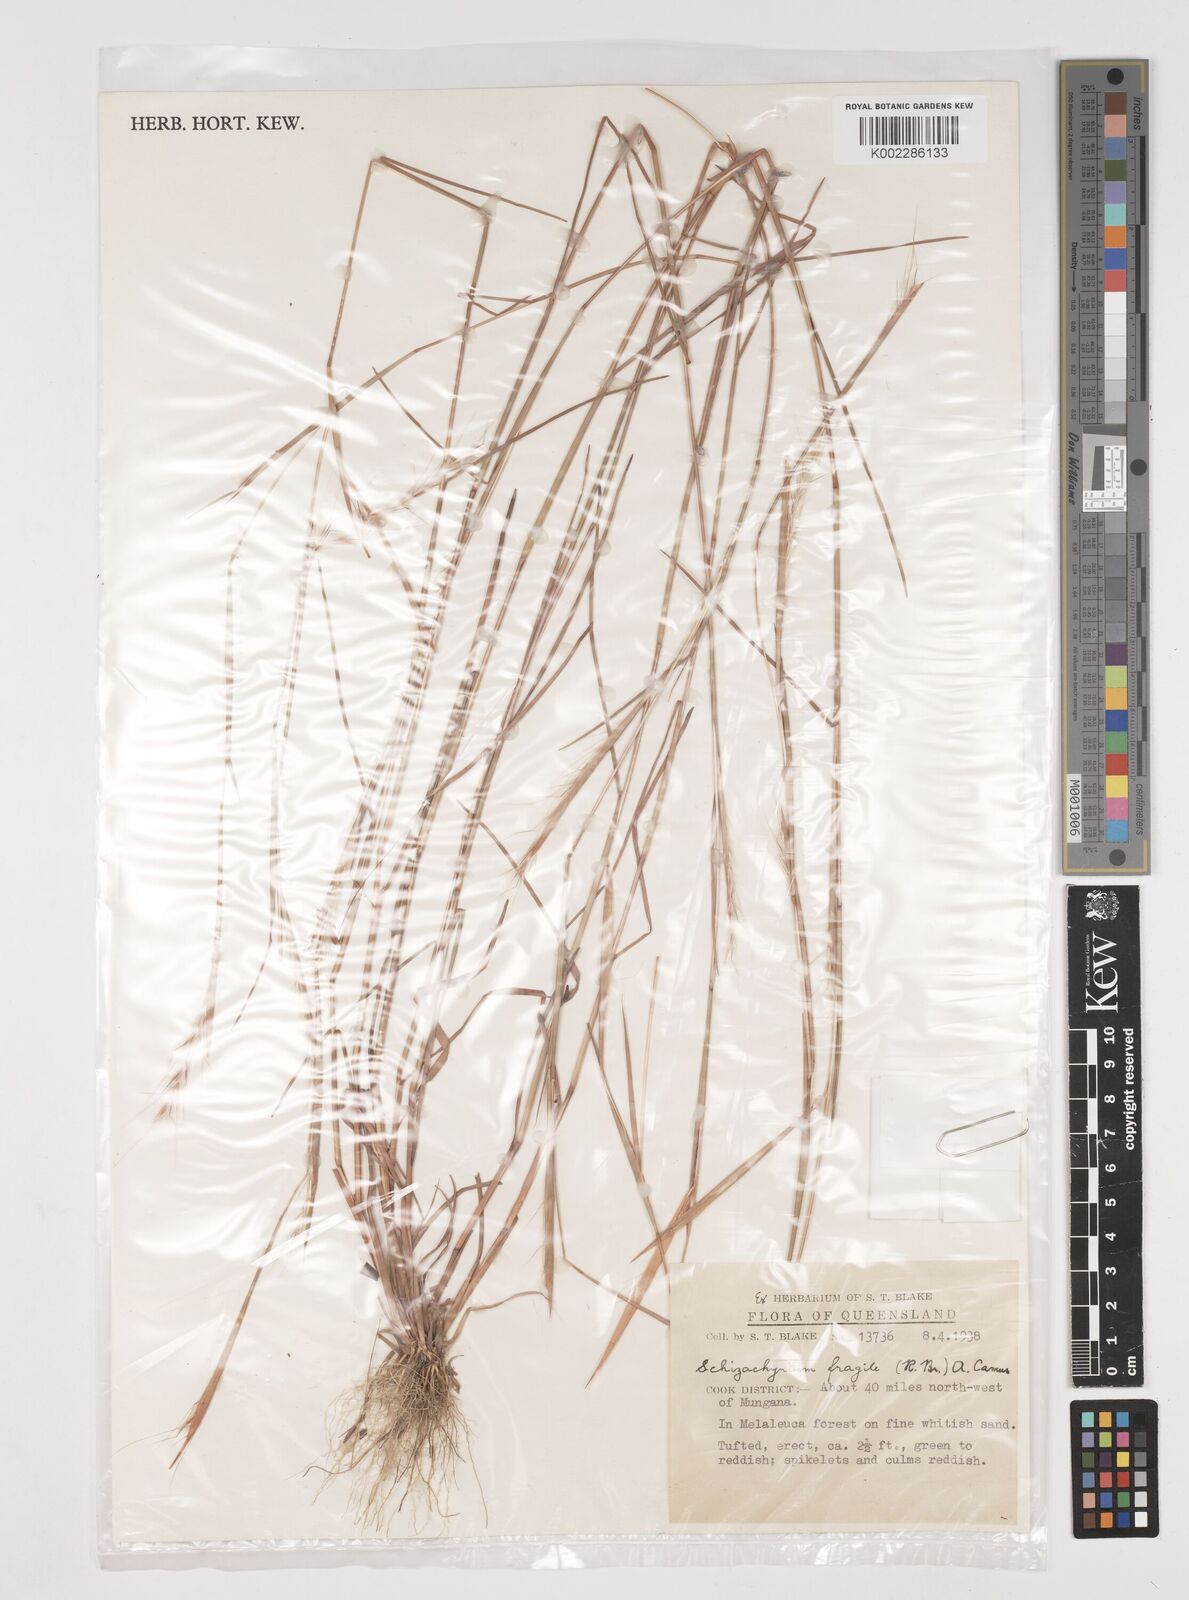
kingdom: Plantae
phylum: Tracheophyta
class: Liliopsida
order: Poales
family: Poaceae
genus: Schizachyrium
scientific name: Schizachyrium fragile
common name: Red spathe grass
